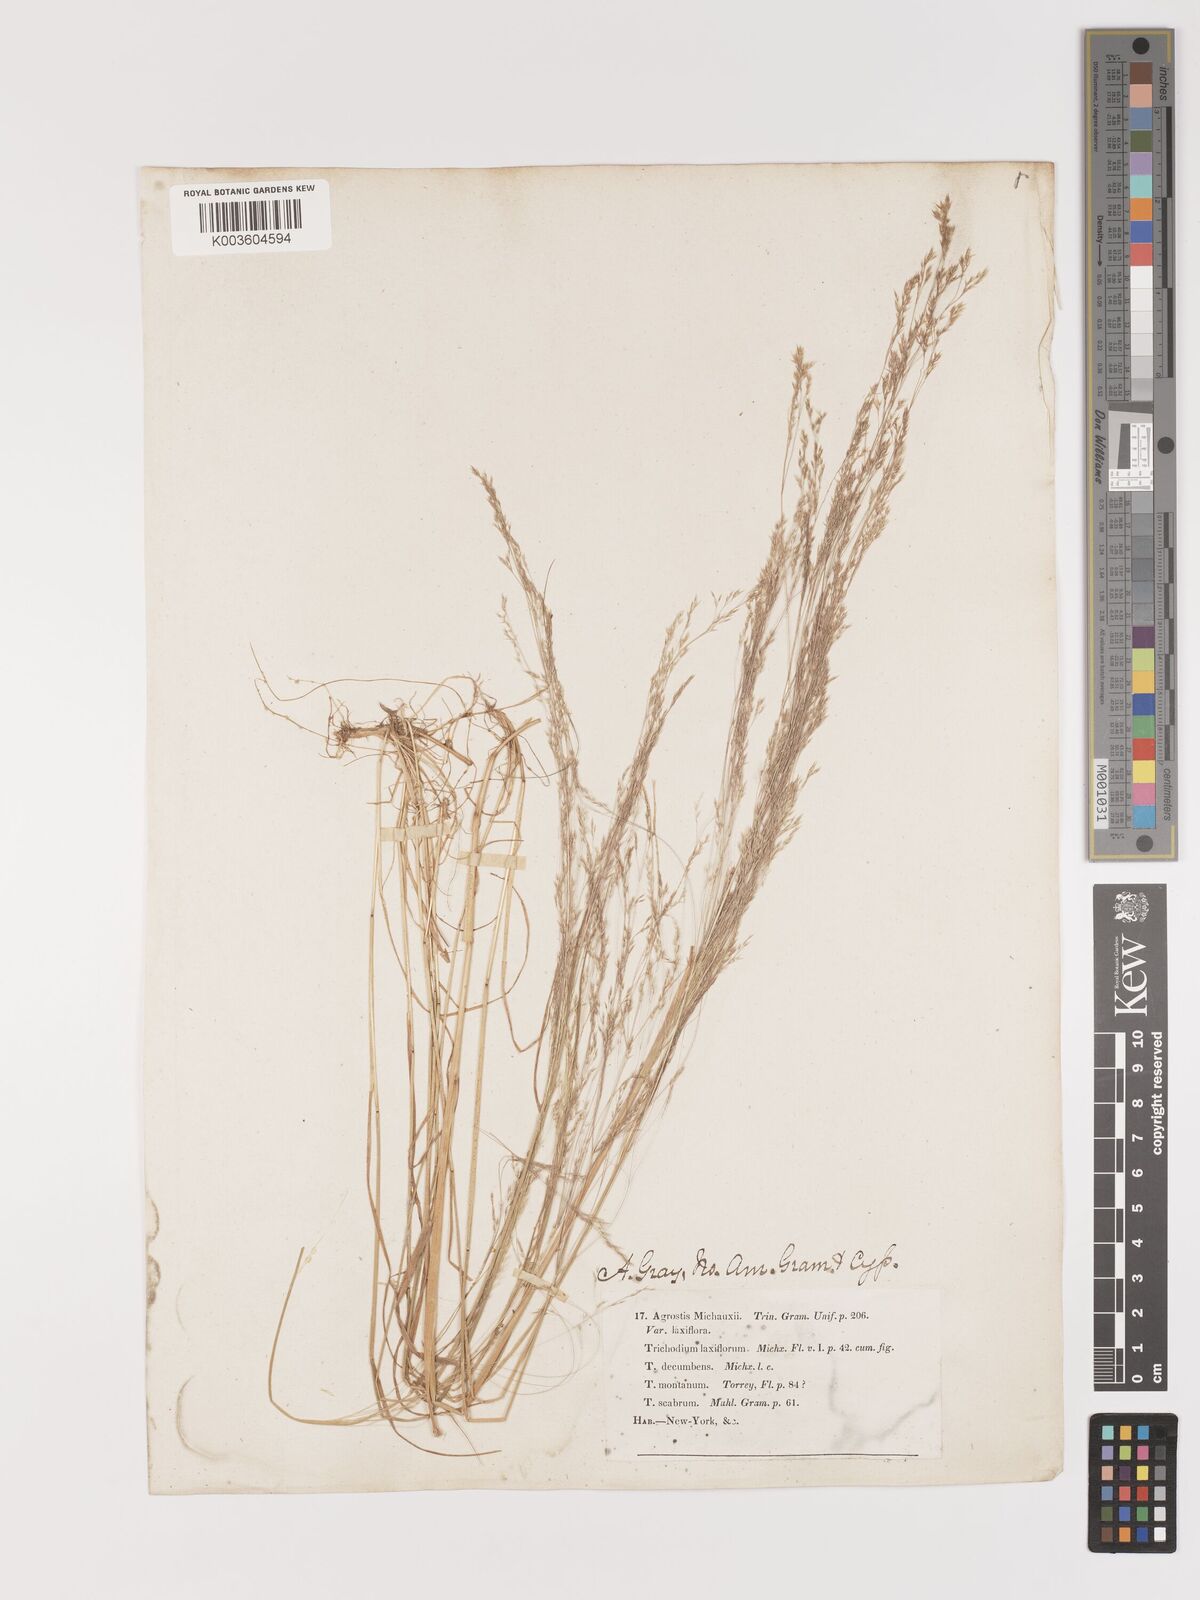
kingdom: Plantae
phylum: Tracheophyta
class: Liliopsida
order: Poales
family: Poaceae
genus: Agrostis
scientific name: Agrostis hyemalis
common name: Small bent
